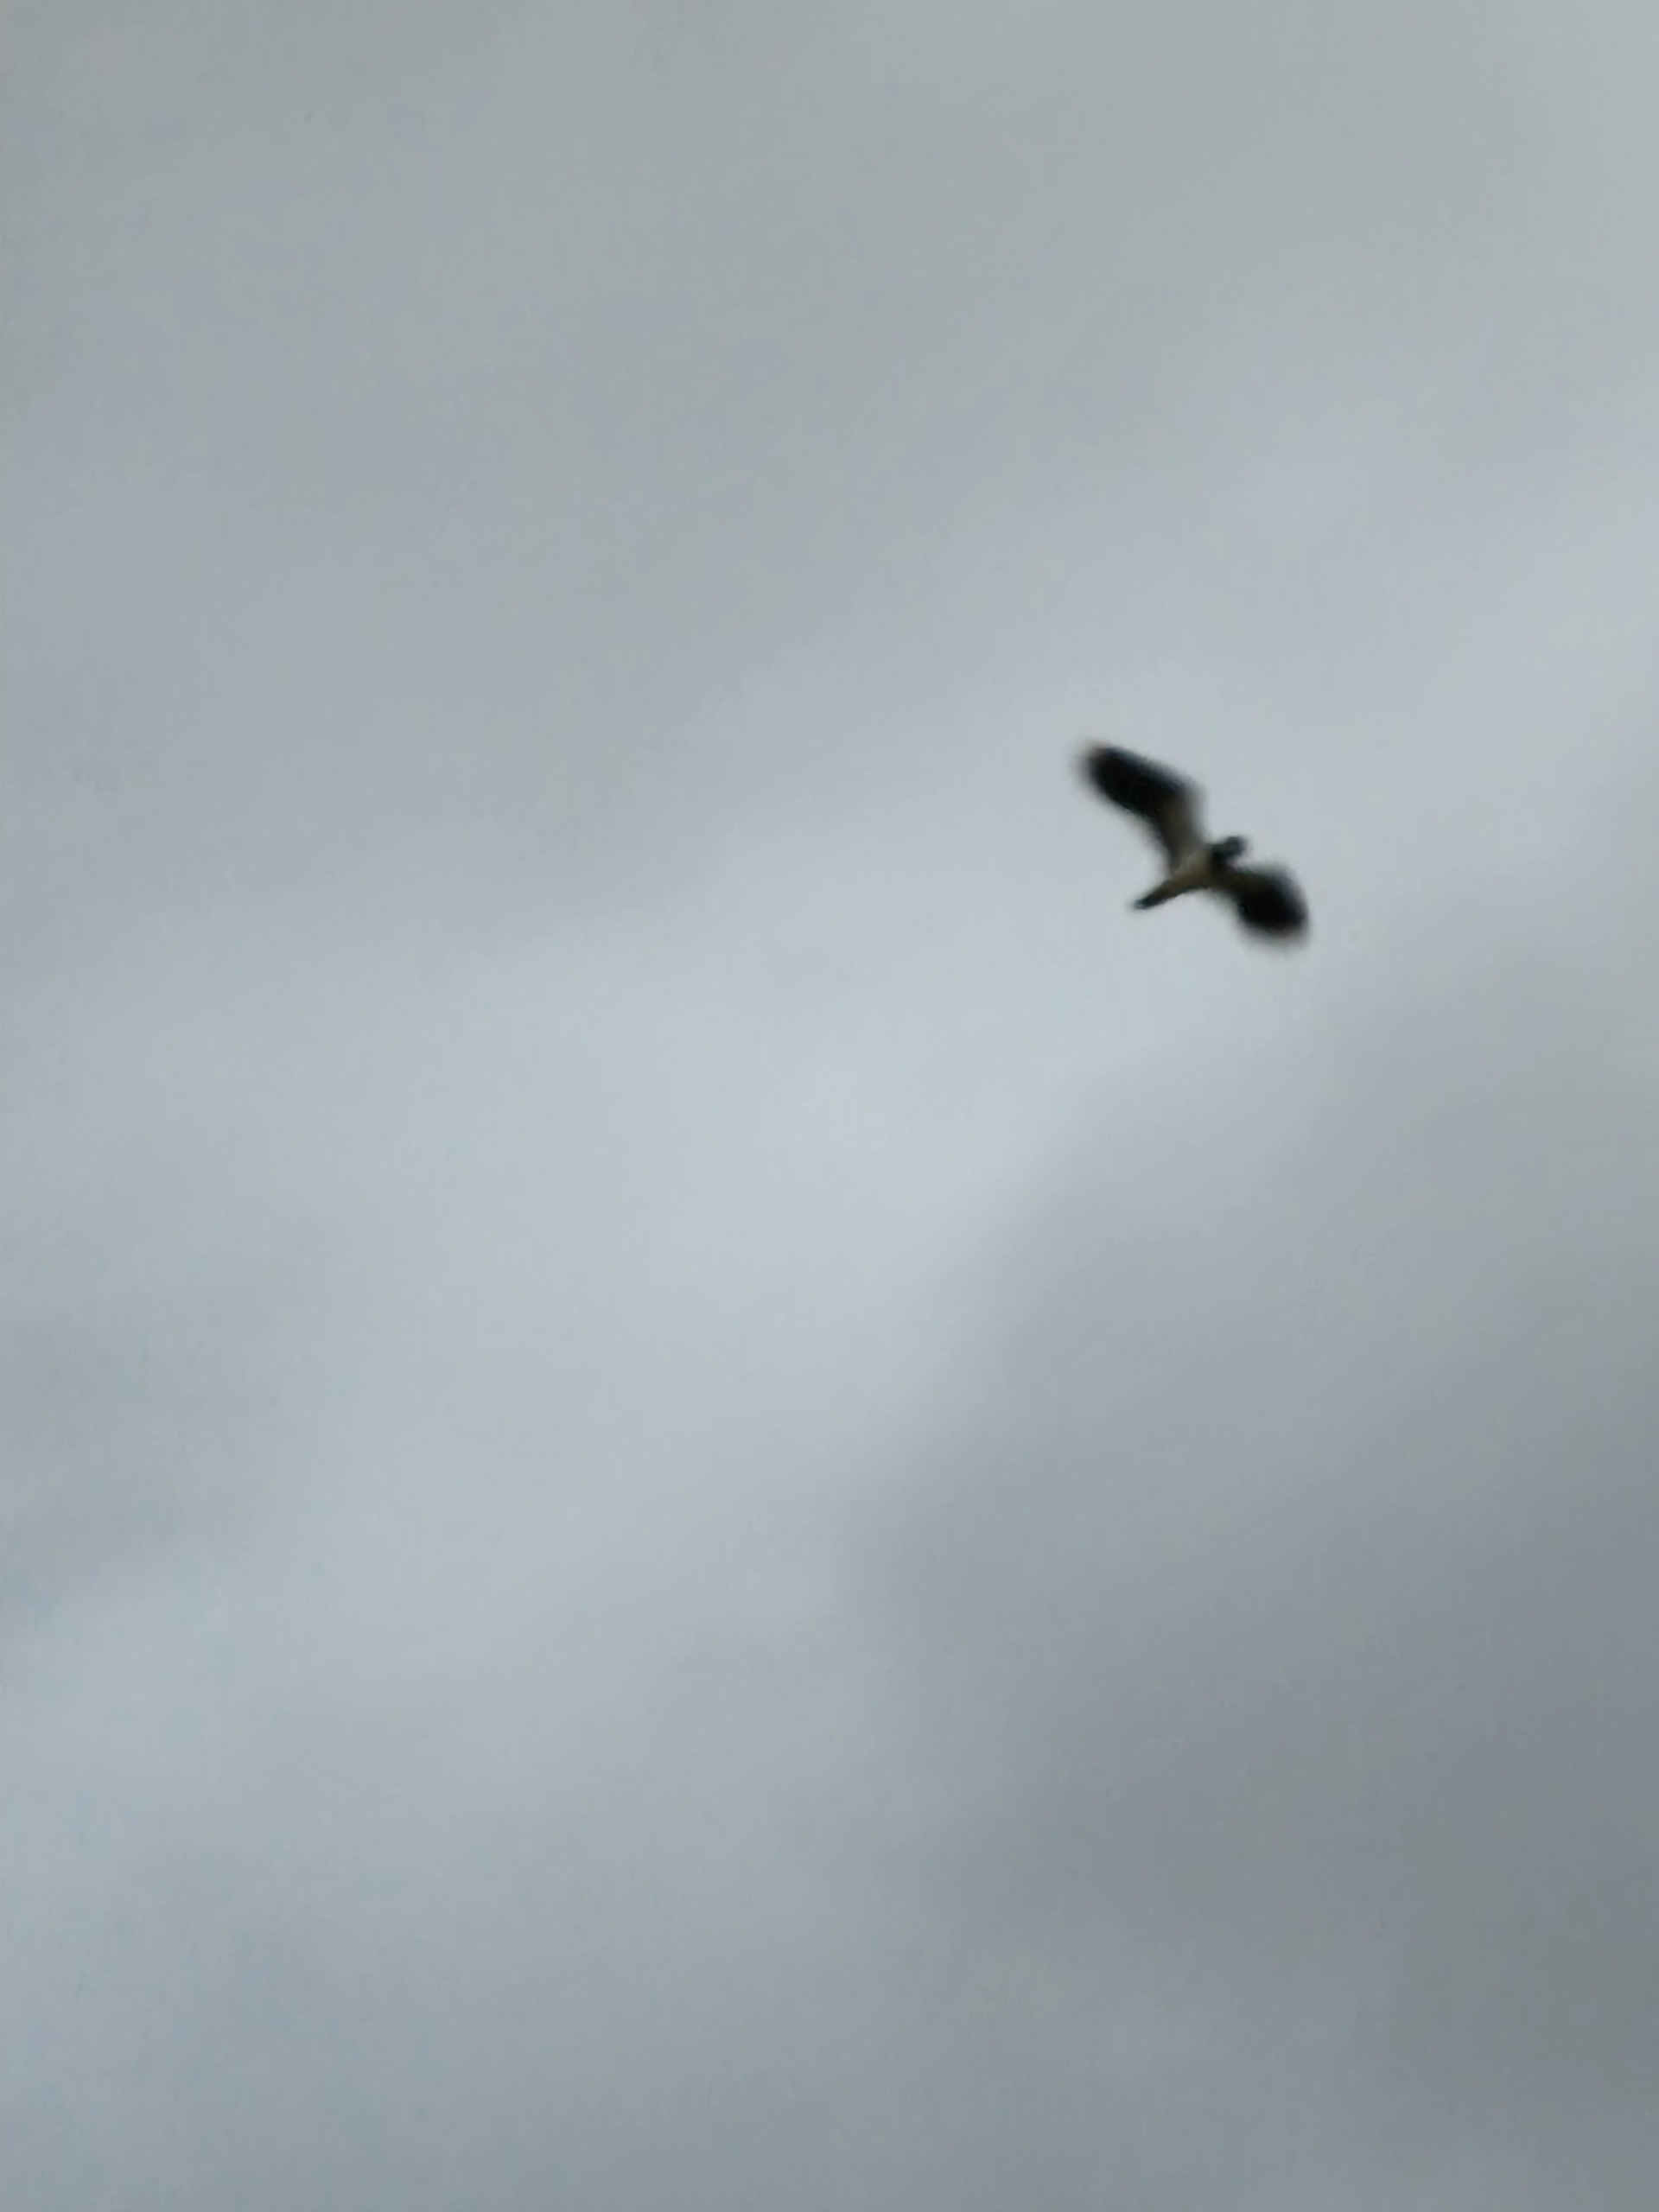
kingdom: Animalia
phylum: Chordata
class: Aves
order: Charadriiformes
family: Charadriidae
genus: Vanellus
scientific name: Vanellus vanellus
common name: Vibe
